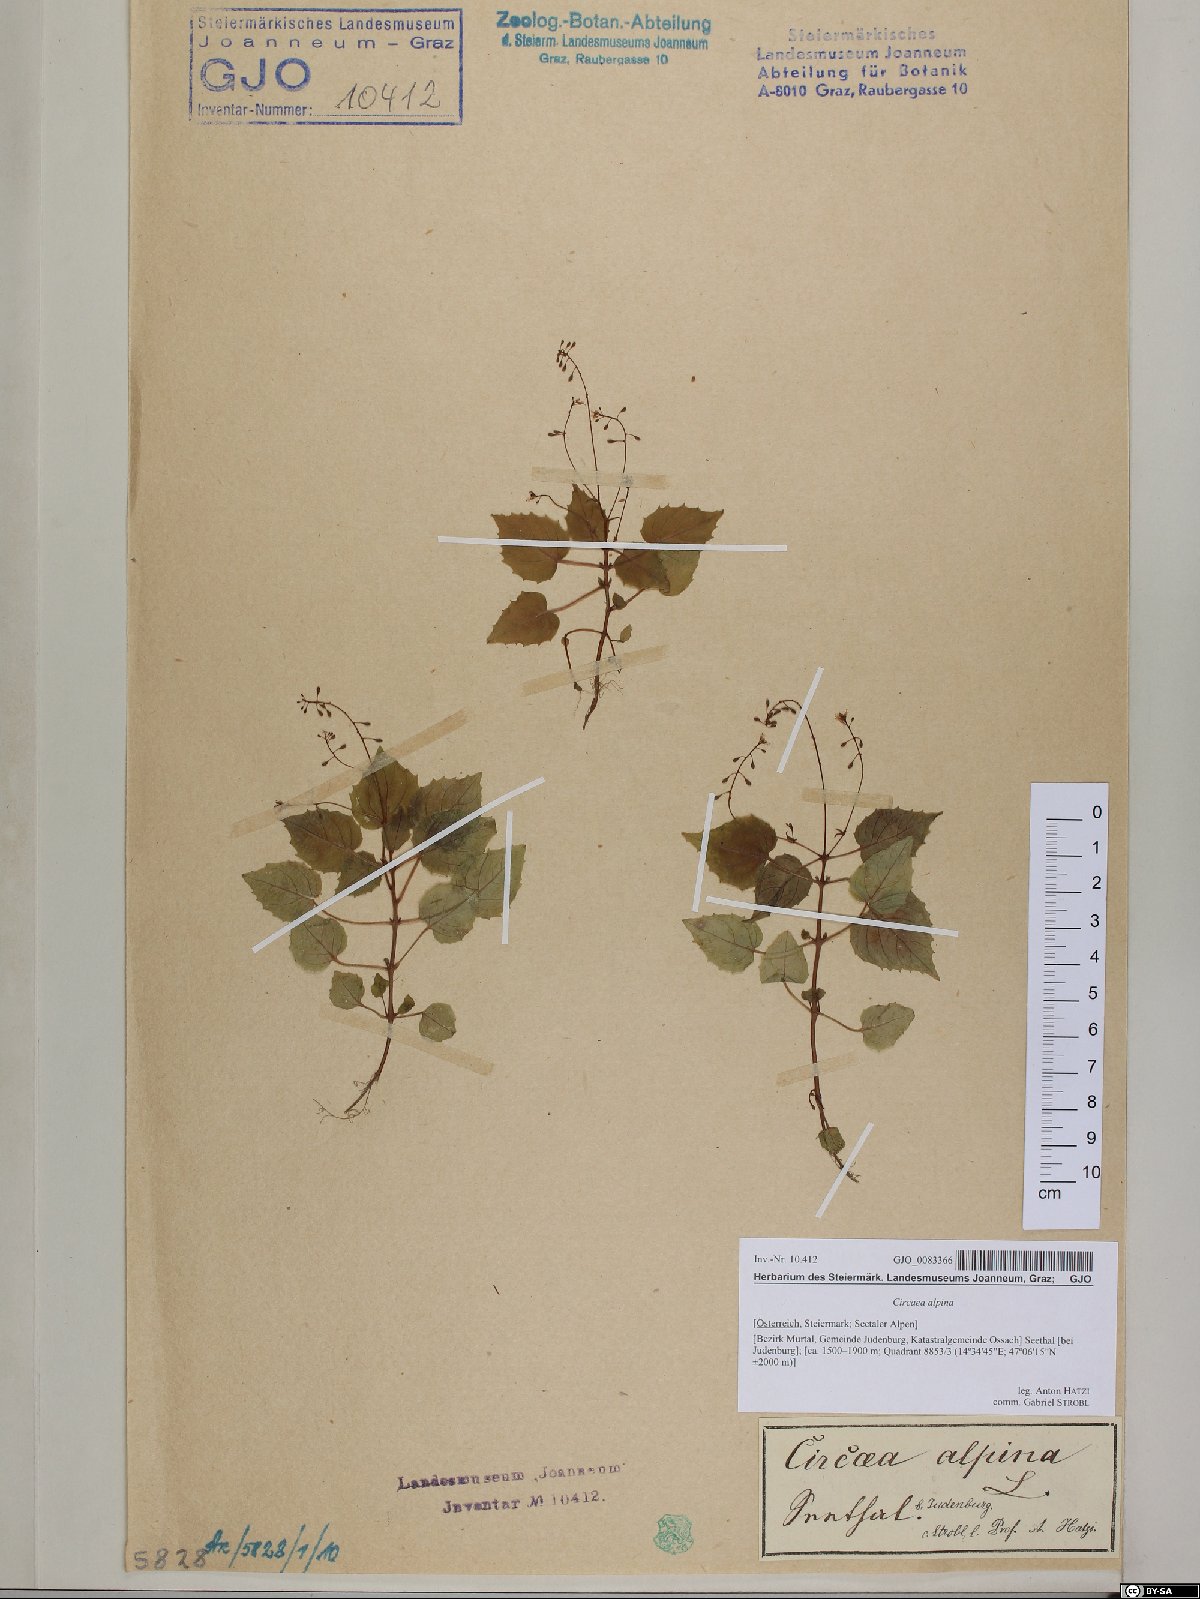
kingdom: Plantae
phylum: Tracheophyta
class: Magnoliopsida
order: Myrtales
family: Onagraceae
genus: Circaea
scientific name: Circaea alpina
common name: Alpine enchanter's-nightshade
